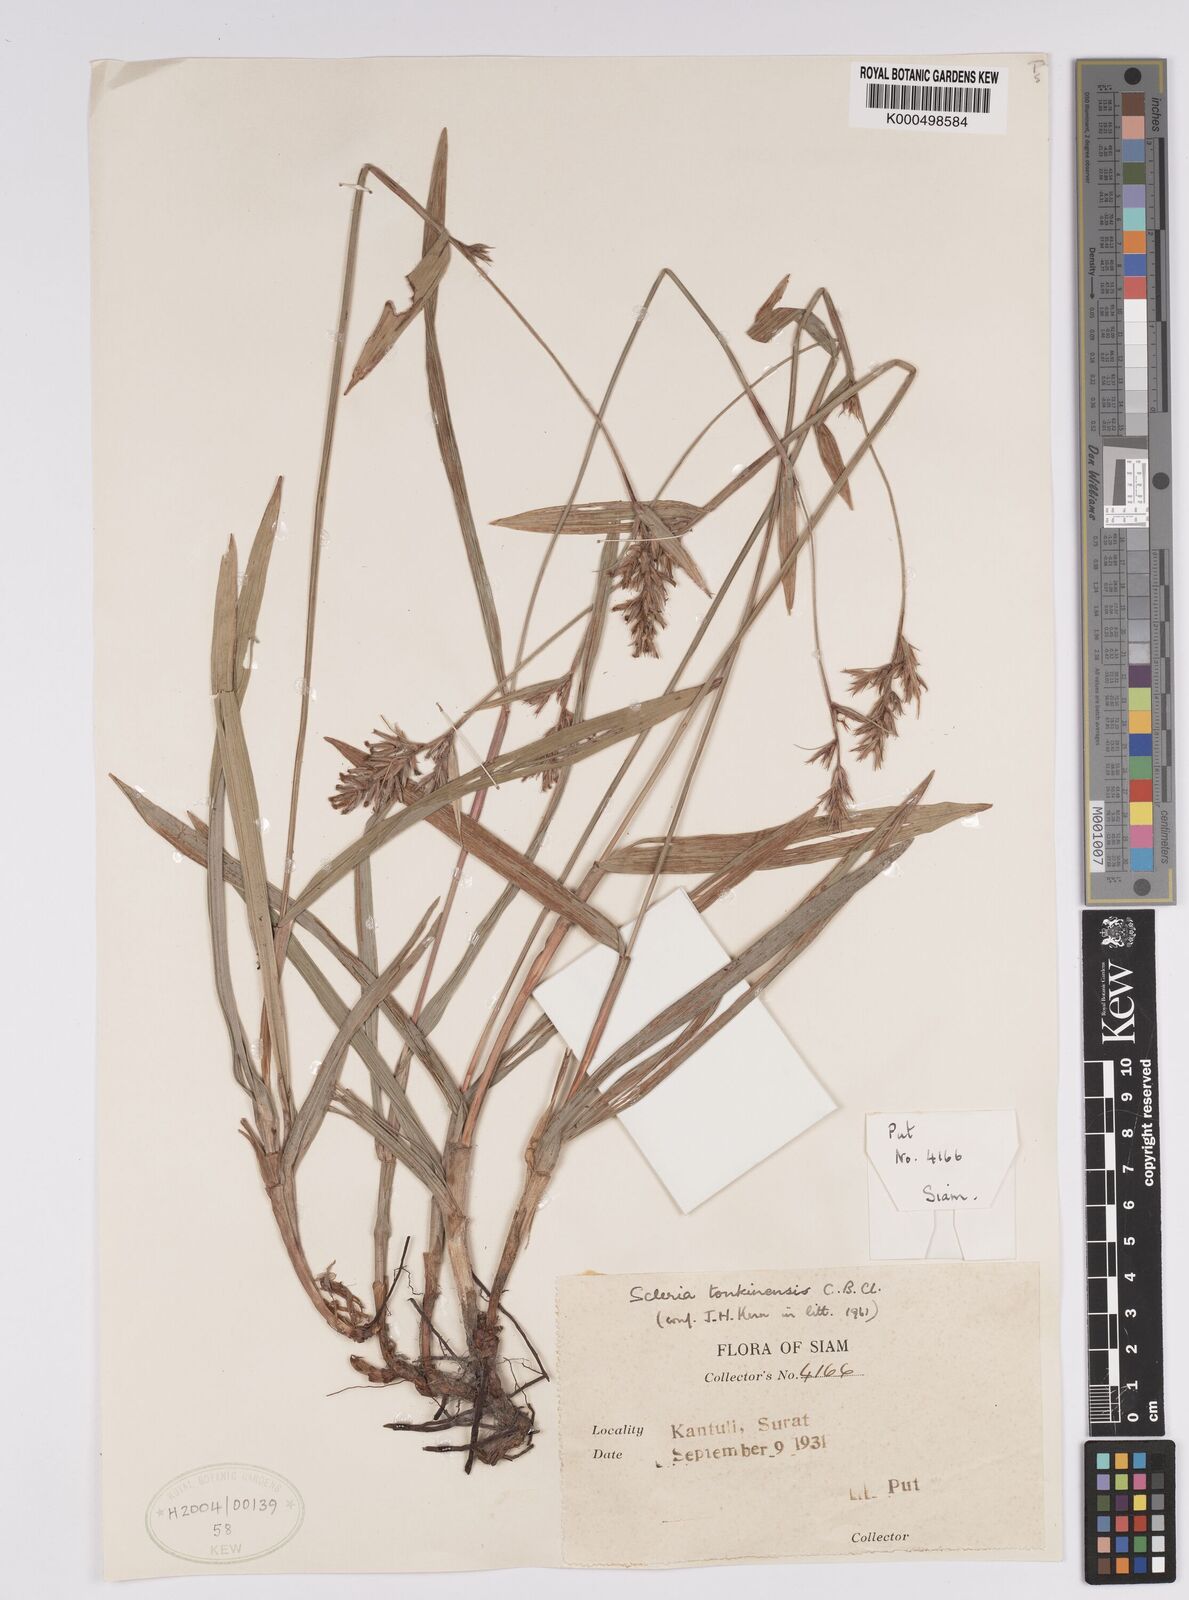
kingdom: Plantae
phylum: Tracheophyta
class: Liliopsida
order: Poales
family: Cyperaceae
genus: Scleria
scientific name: Scleria tonkinensis
